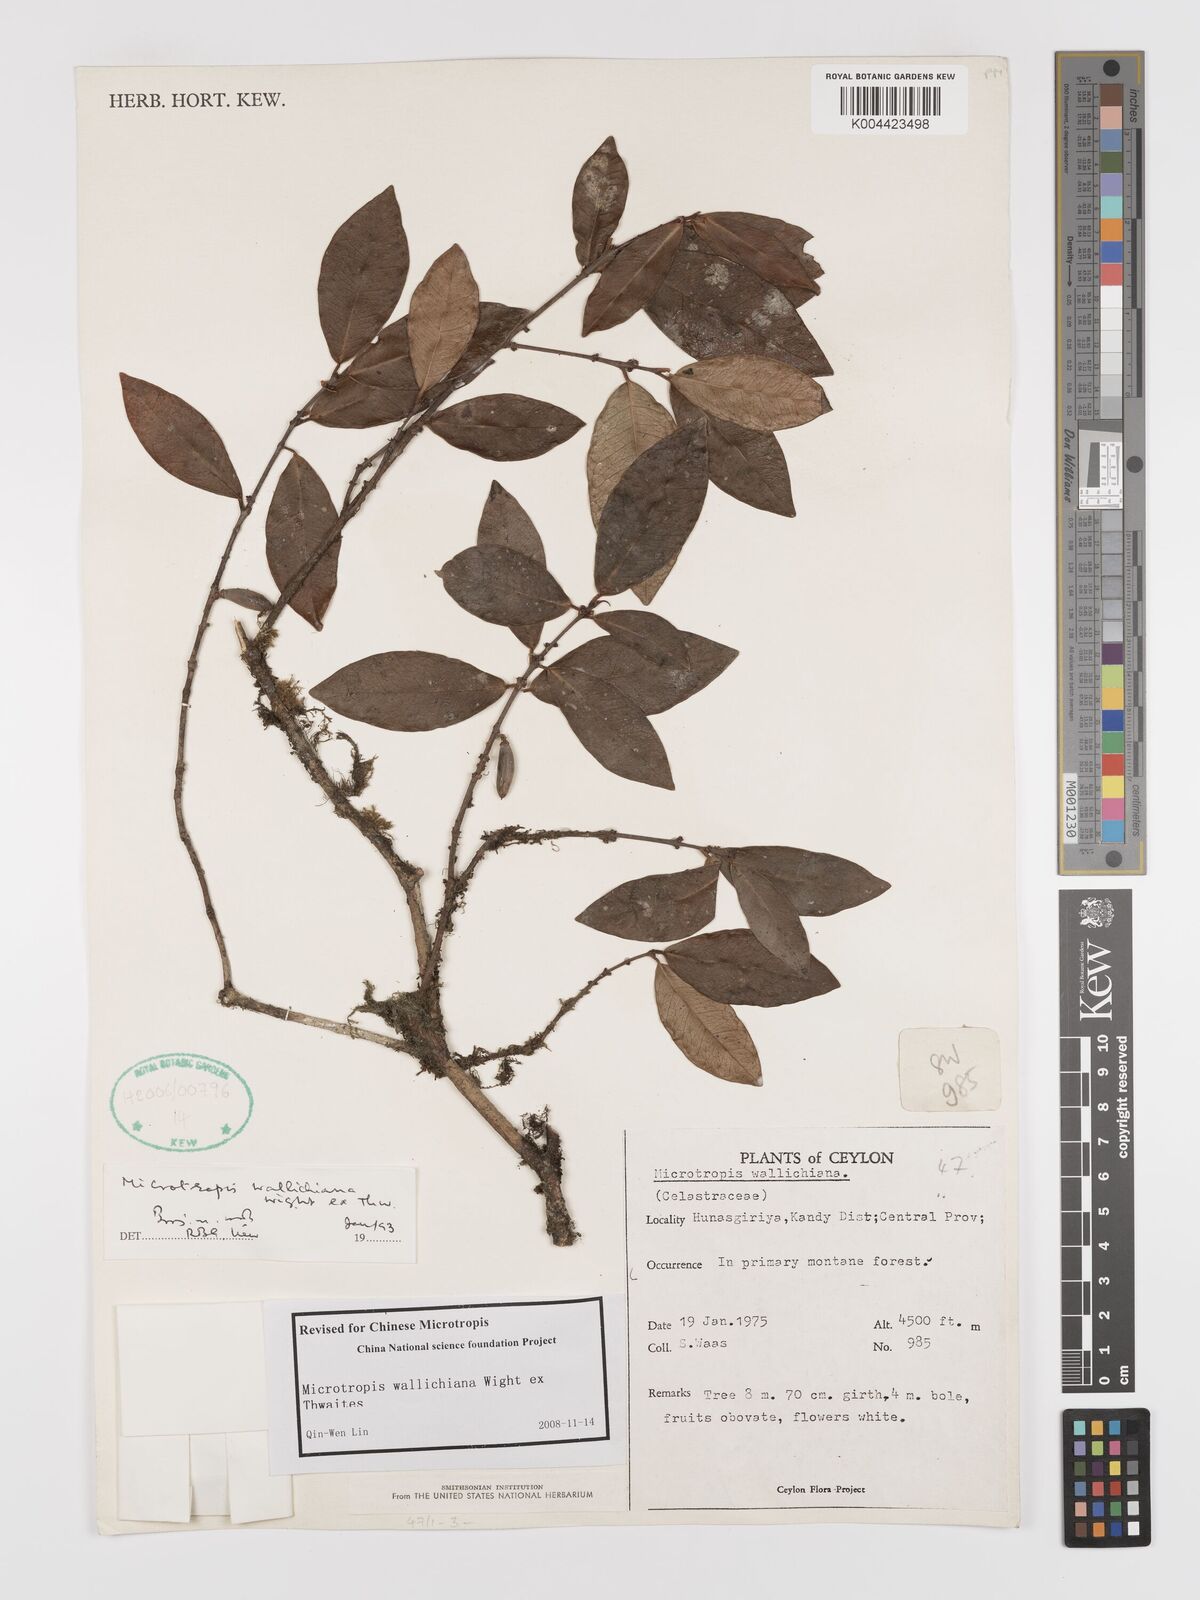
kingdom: Plantae
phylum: Tracheophyta
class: Magnoliopsida
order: Celastrales
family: Celastraceae
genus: Microtropis
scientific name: Microtropis wallichiana
